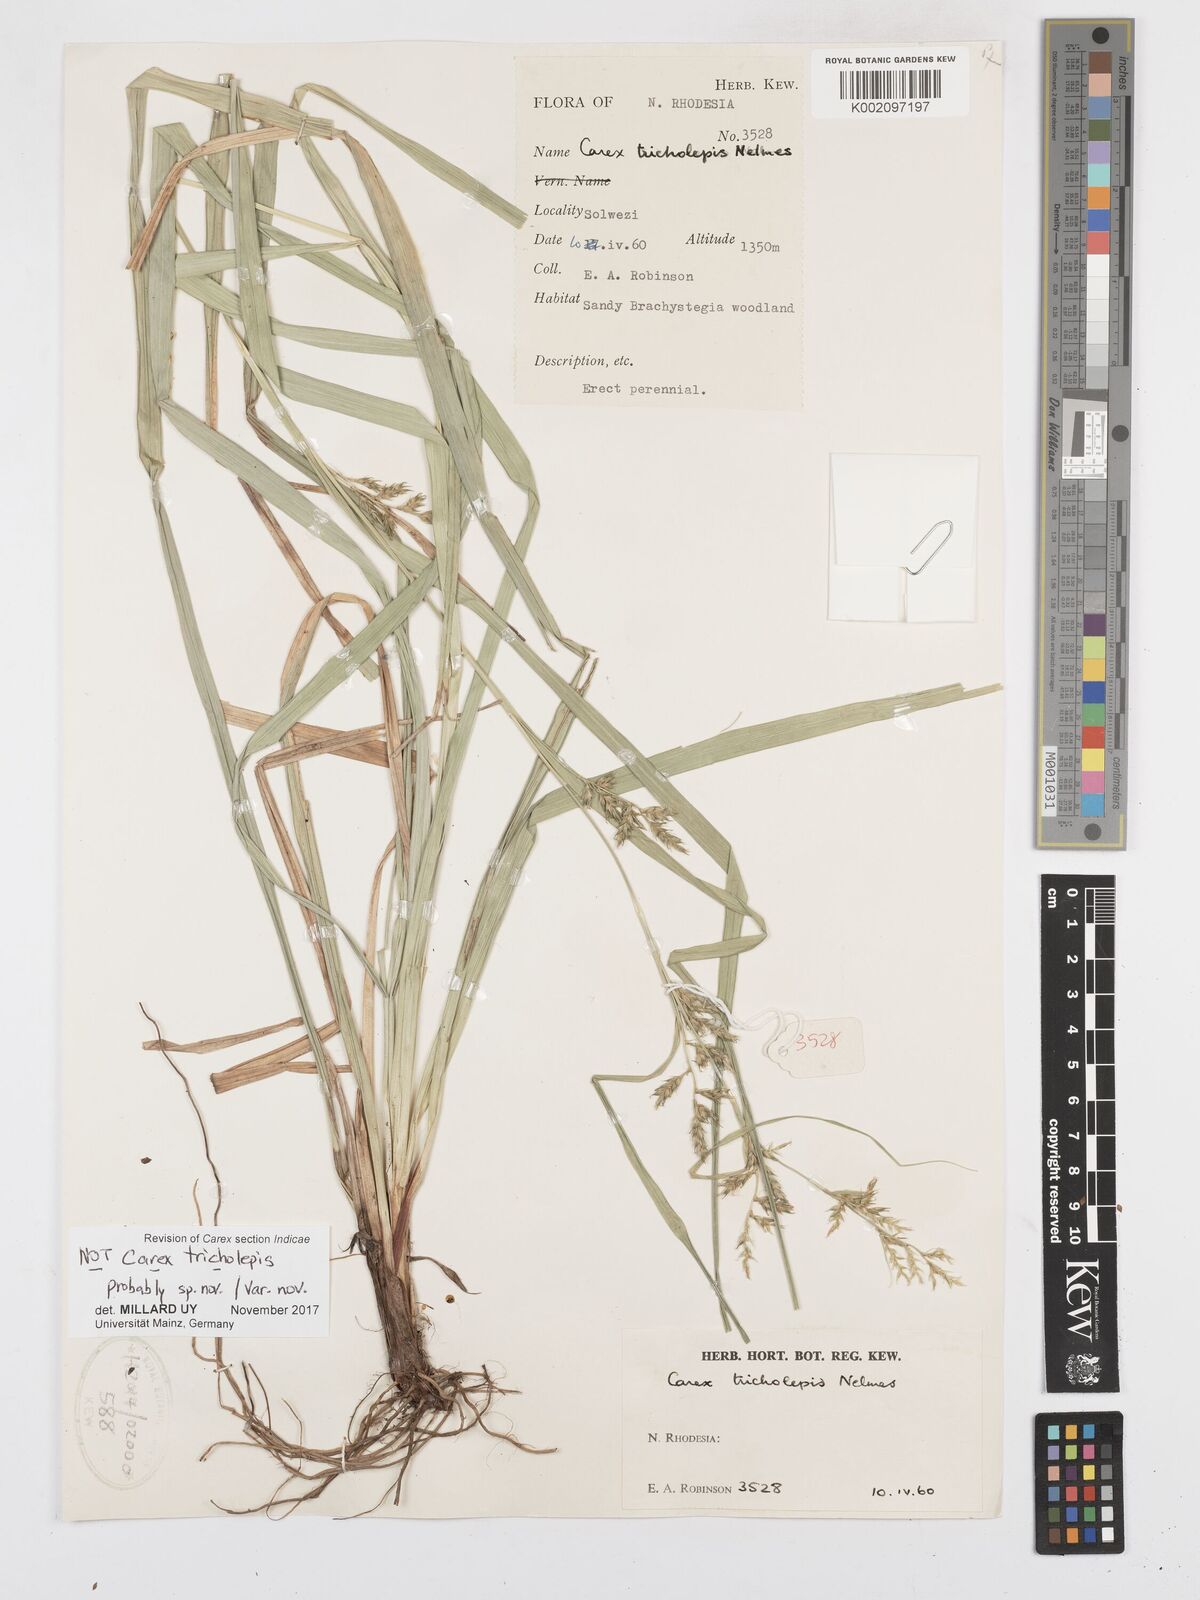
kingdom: Plantae
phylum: Tracheophyta
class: Liliopsida
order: Poales
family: Cyperaceae
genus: Carex
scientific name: Carex
